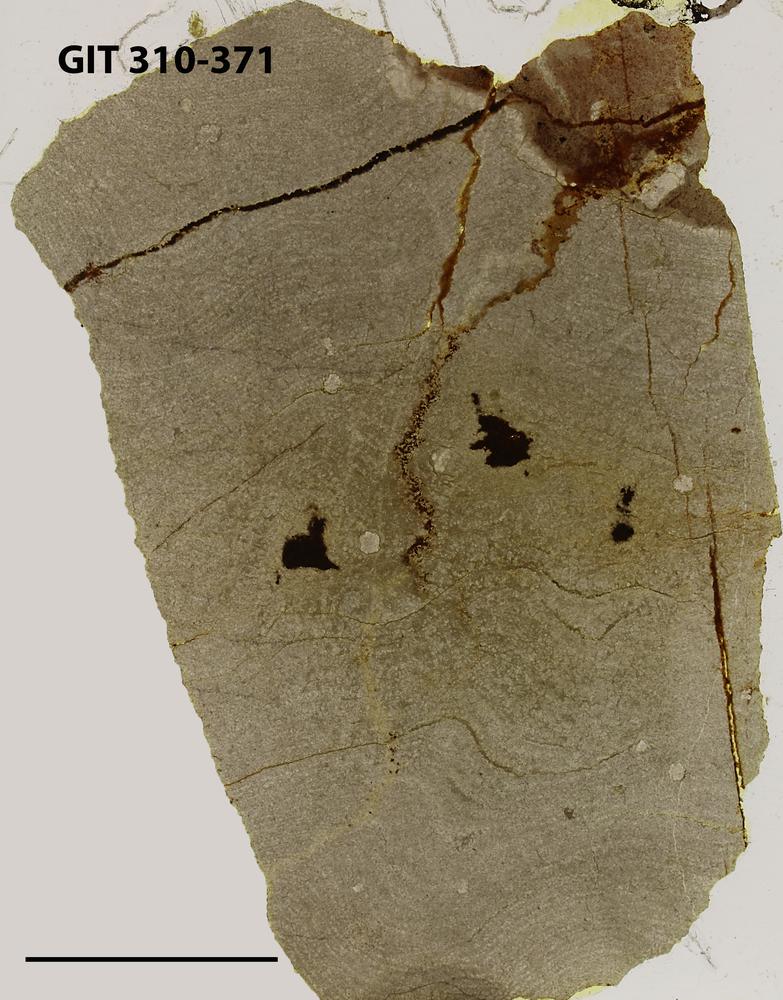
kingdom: Animalia
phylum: Porifera
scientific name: Porifera
